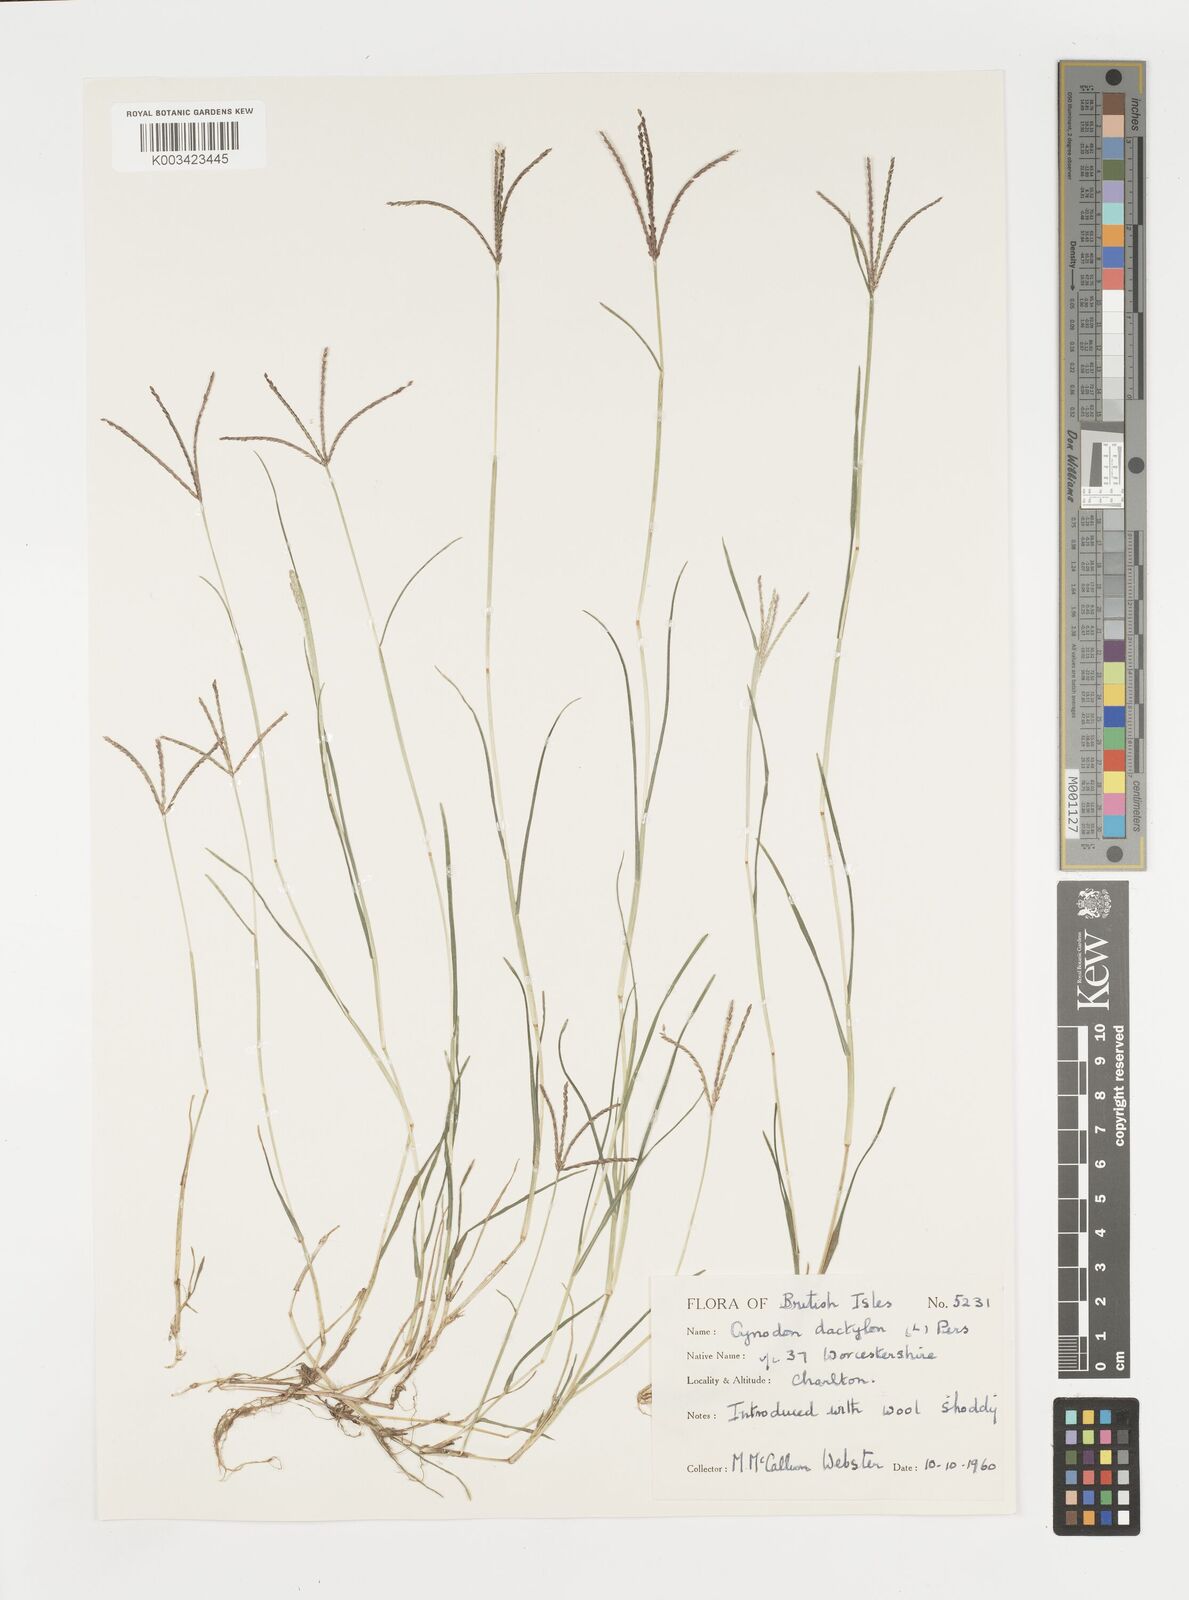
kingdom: Plantae
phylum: Tracheophyta
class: Liliopsida
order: Poales
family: Poaceae
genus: Cynodon
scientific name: Cynodon dactylon
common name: Bermuda grass
